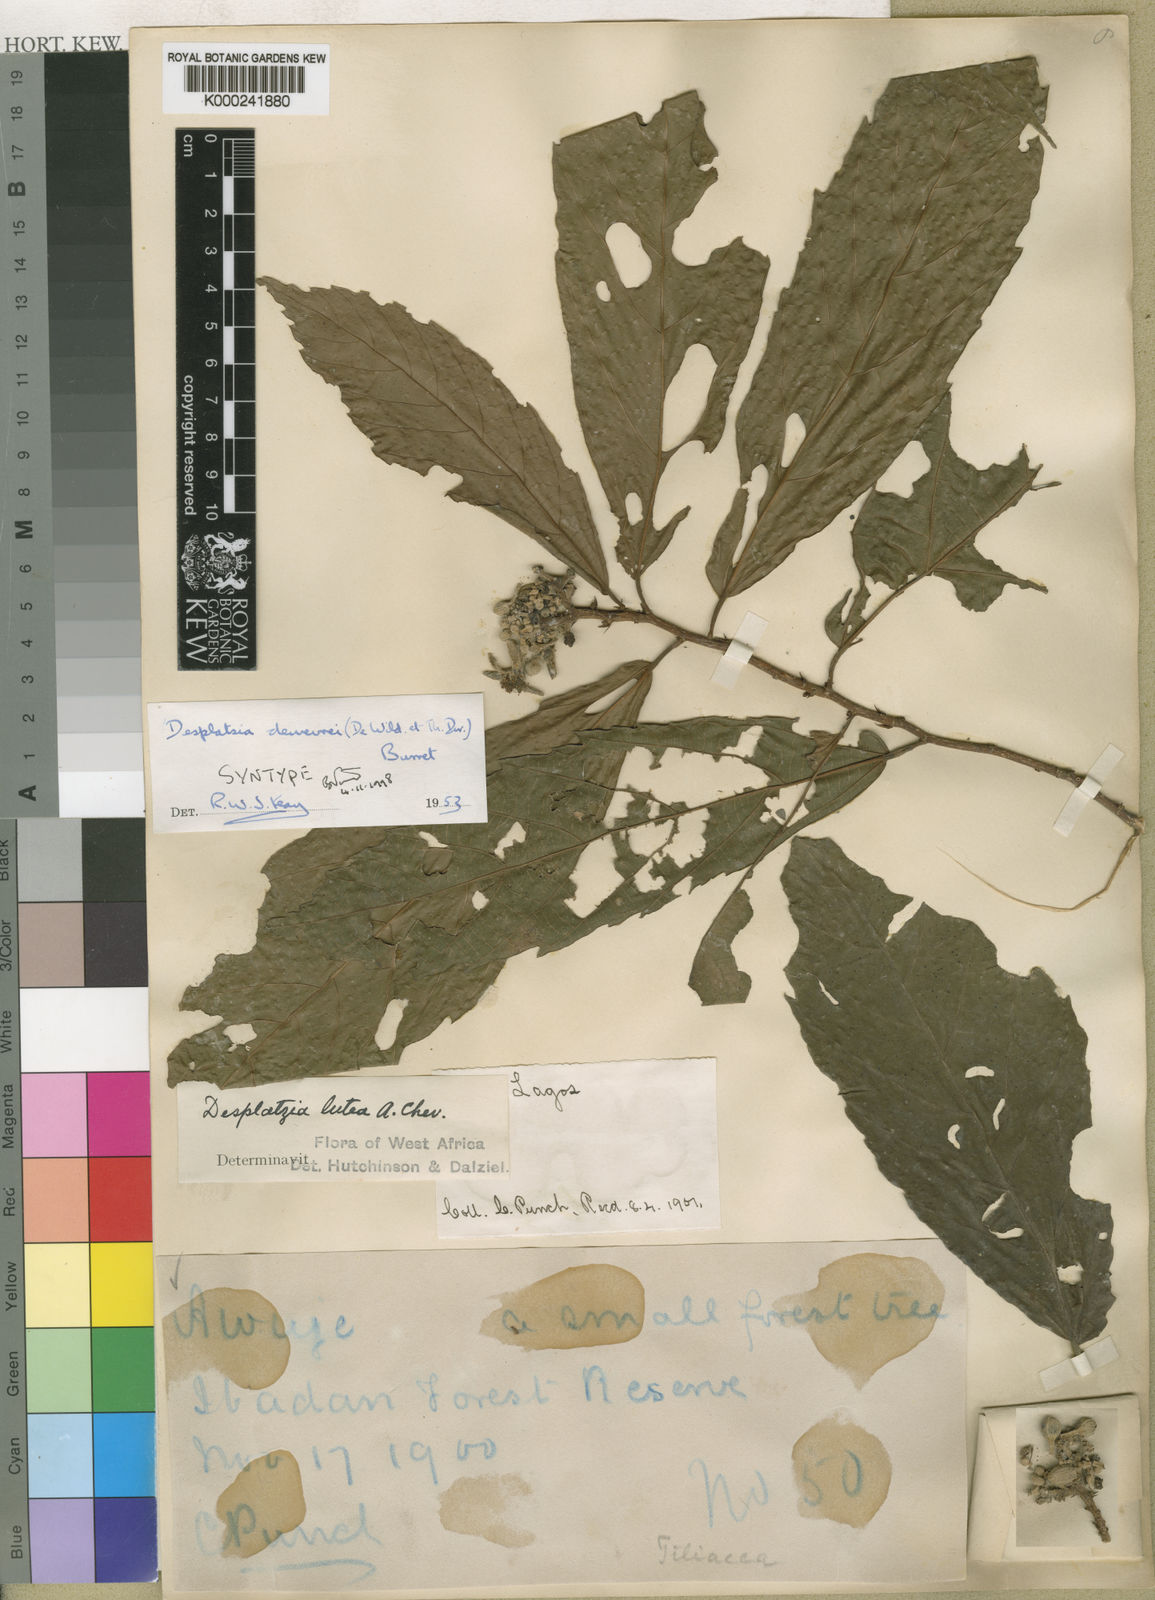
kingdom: Plantae
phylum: Tracheophyta
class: Magnoliopsida
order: Malvales
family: Malvaceae
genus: Desplatsia
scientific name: Desplatsia dewevrei
